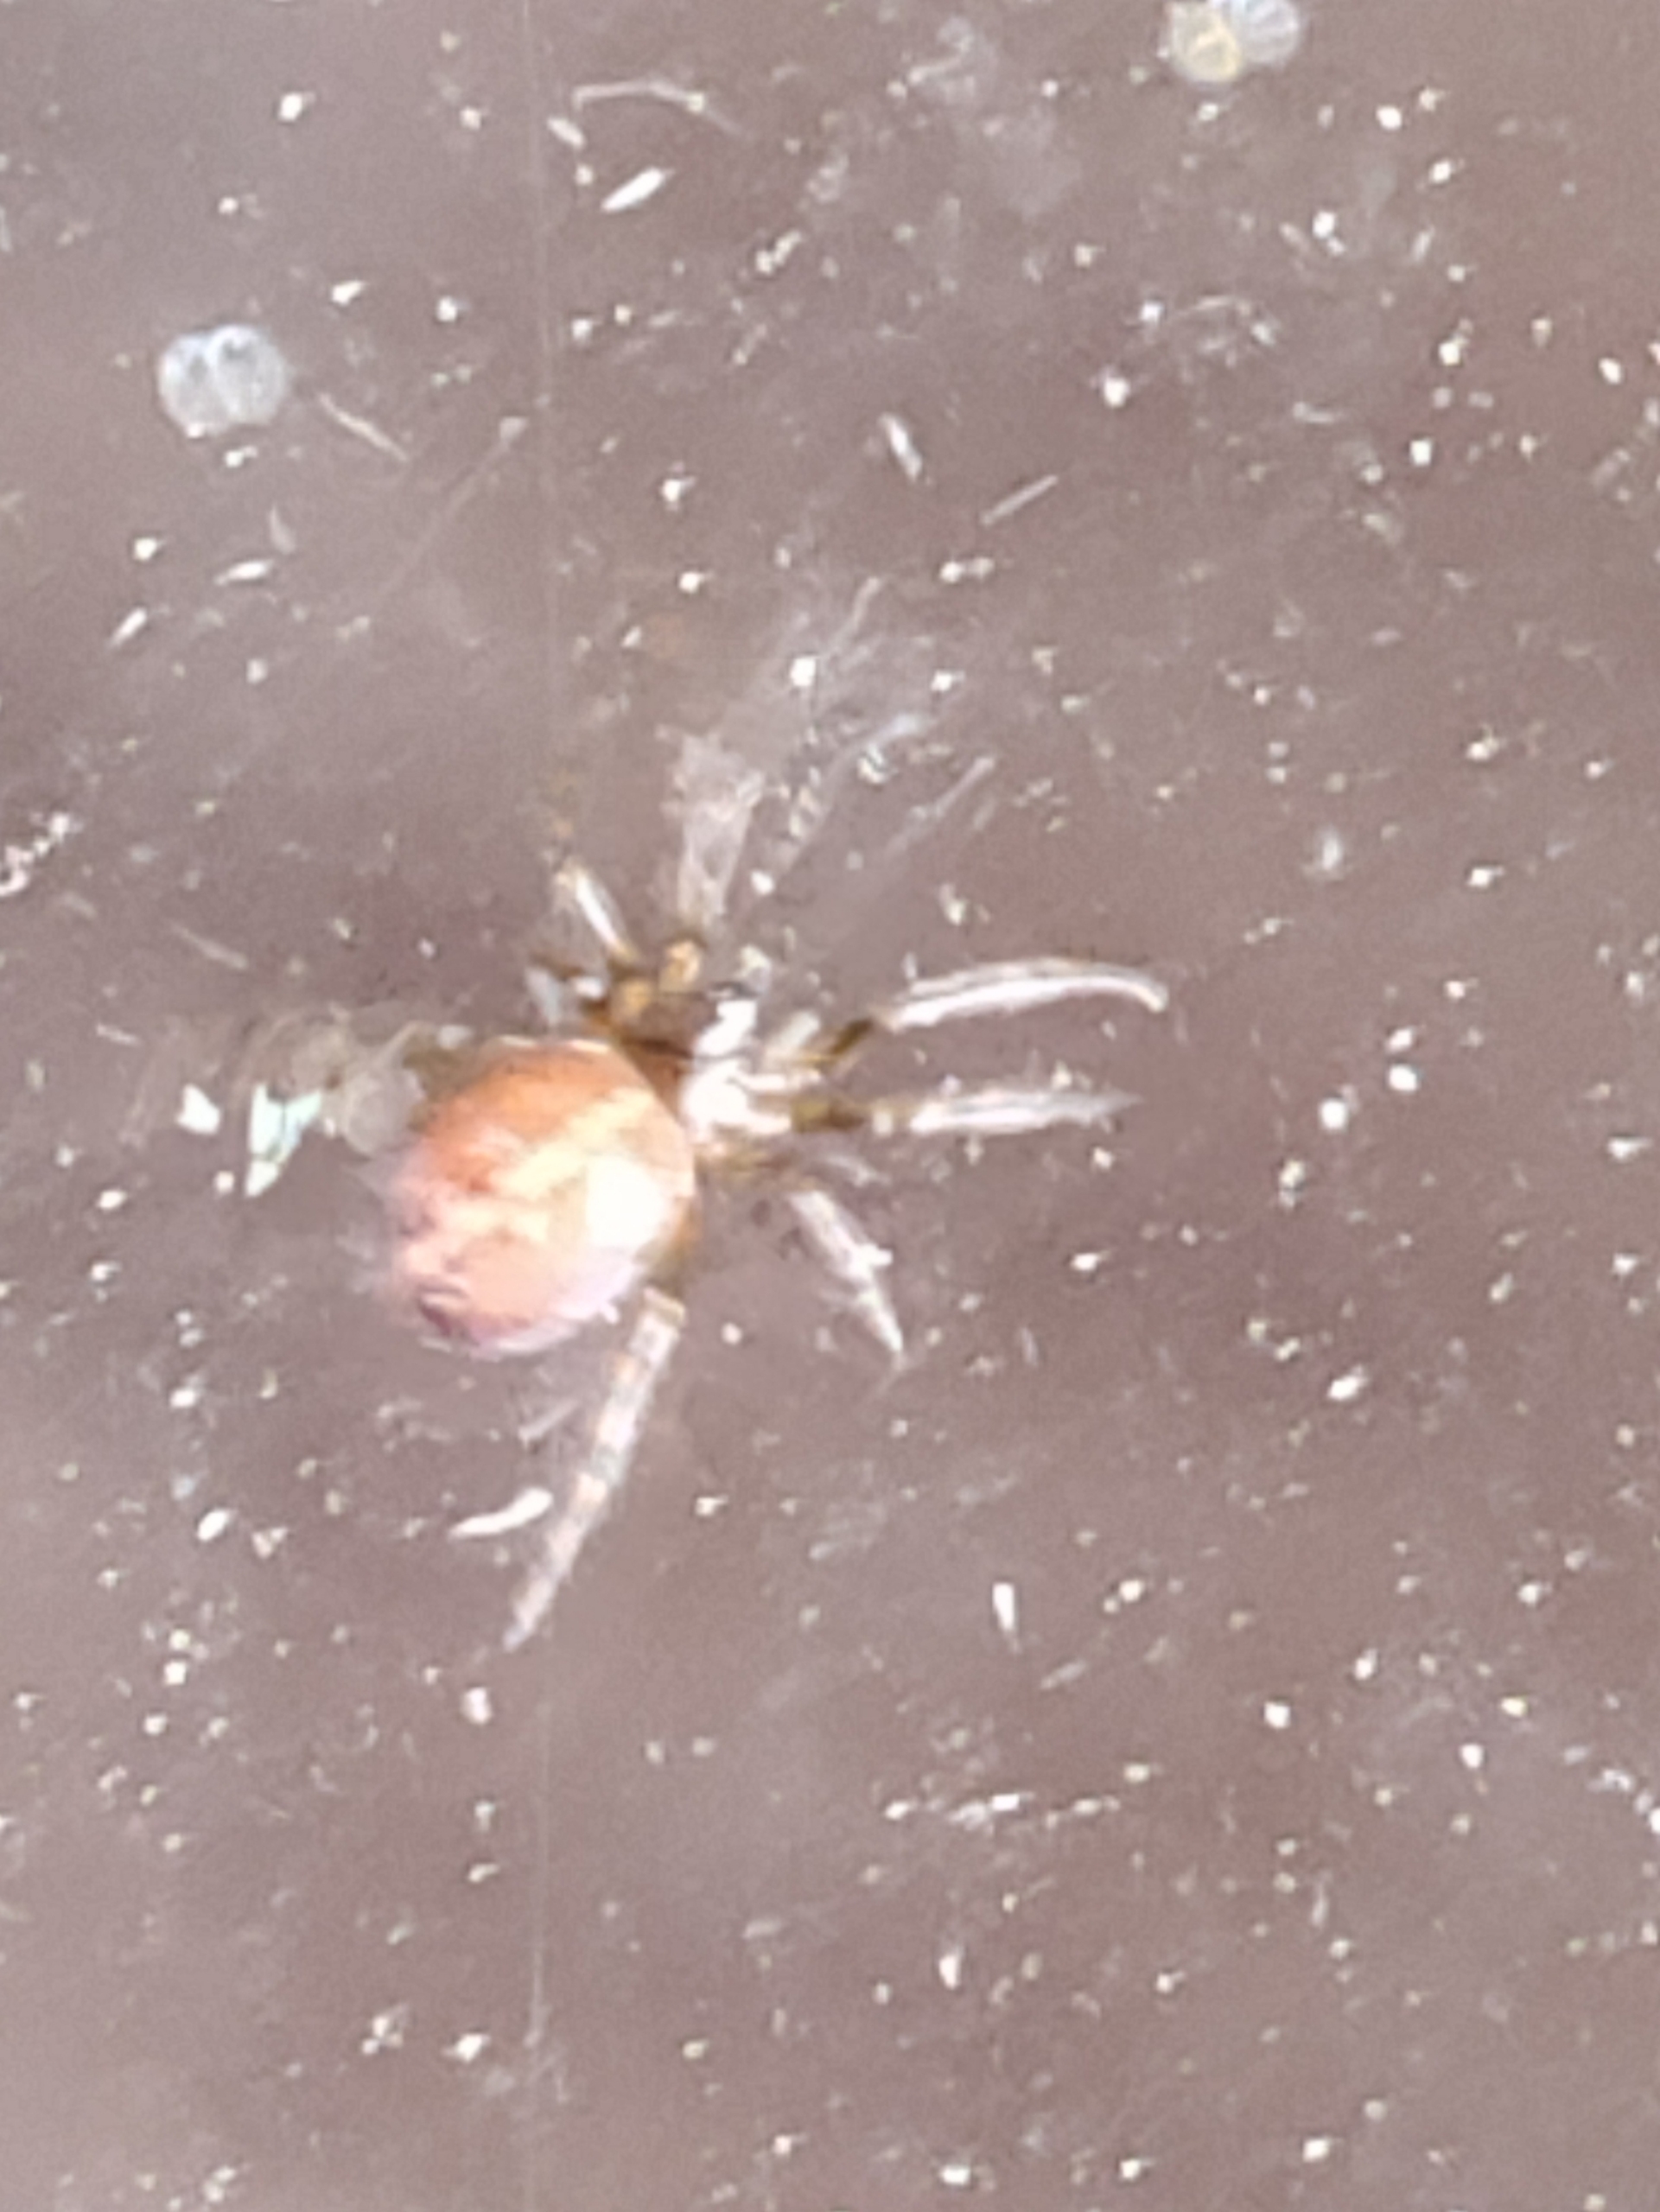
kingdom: Animalia
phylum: Arthropoda
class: Arachnida
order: Araneae
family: Theridiidae
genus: Steatoda
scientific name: Steatoda bipunctata
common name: Fedtedderkop
